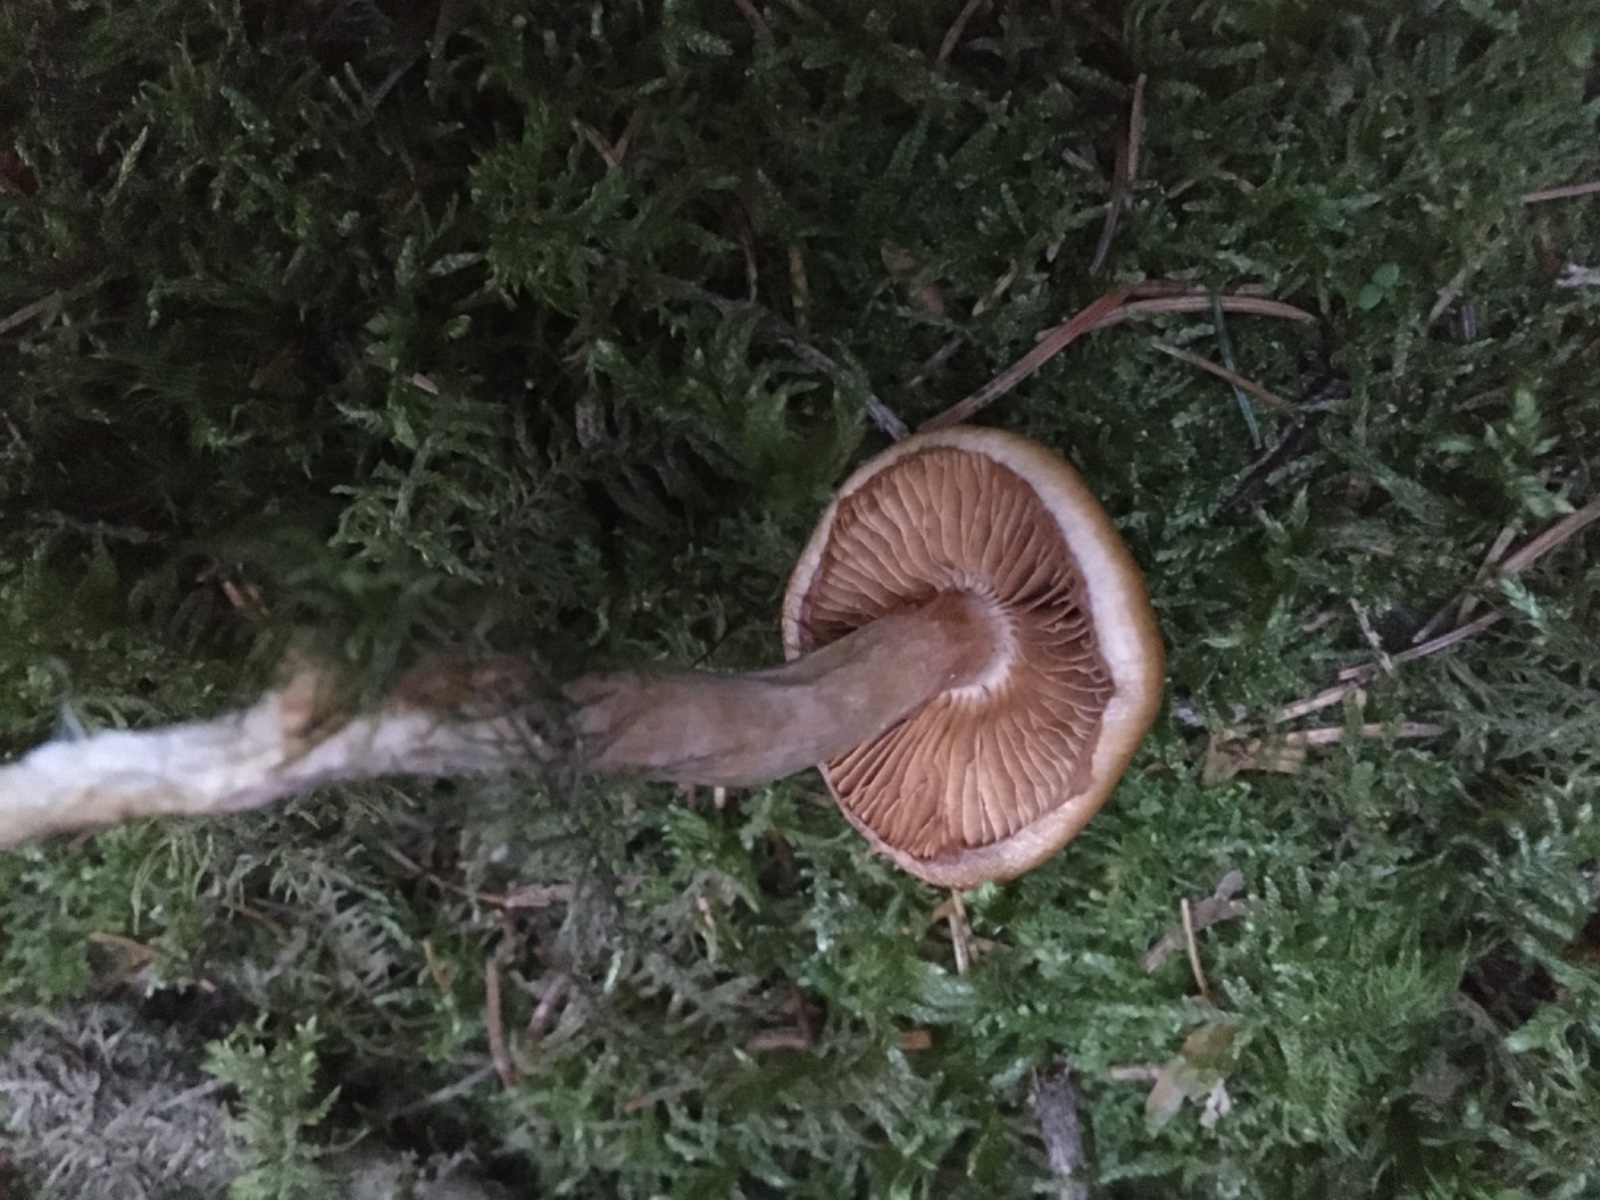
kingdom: Fungi
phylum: Basidiomycota
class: Agaricomycetes
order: Agaricales
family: Cortinariaceae
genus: Cortinarius
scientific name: Cortinarius
